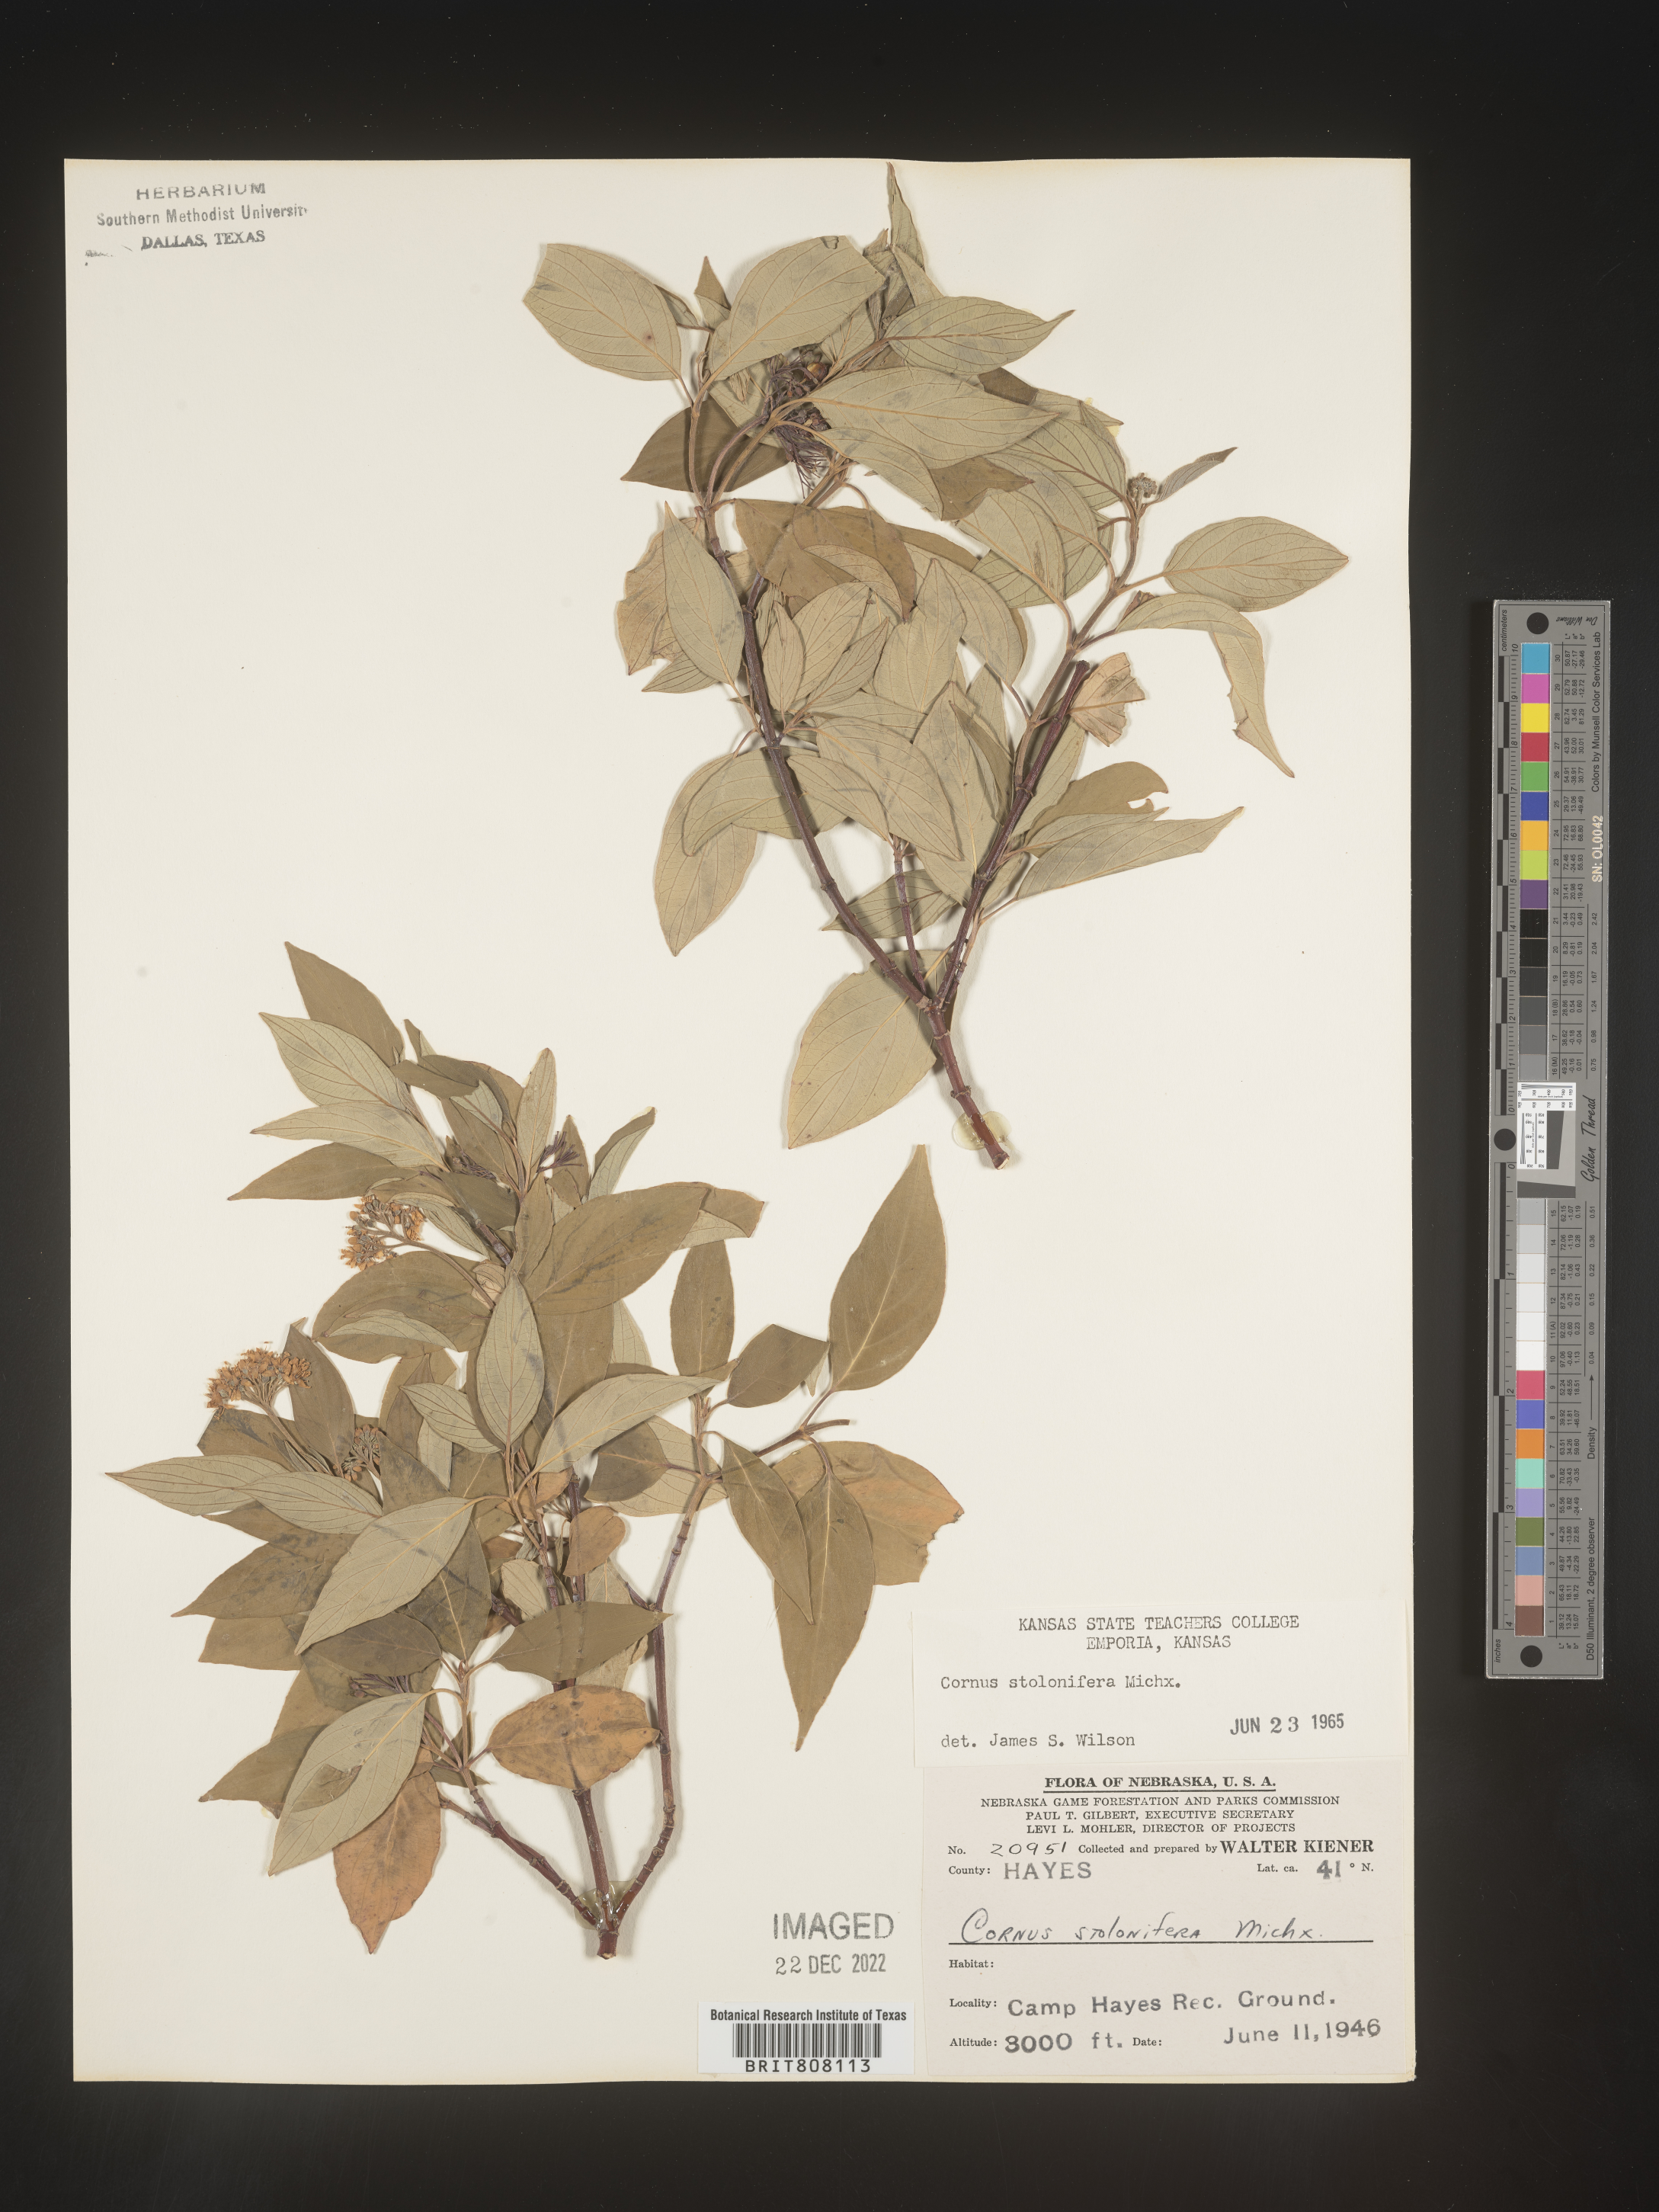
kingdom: Plantae
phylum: Tracheophyta
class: Magnoliopsida
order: Cornales
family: Cornaceae
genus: Cornus
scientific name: Cornus sericea
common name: Red-osier dogwood
